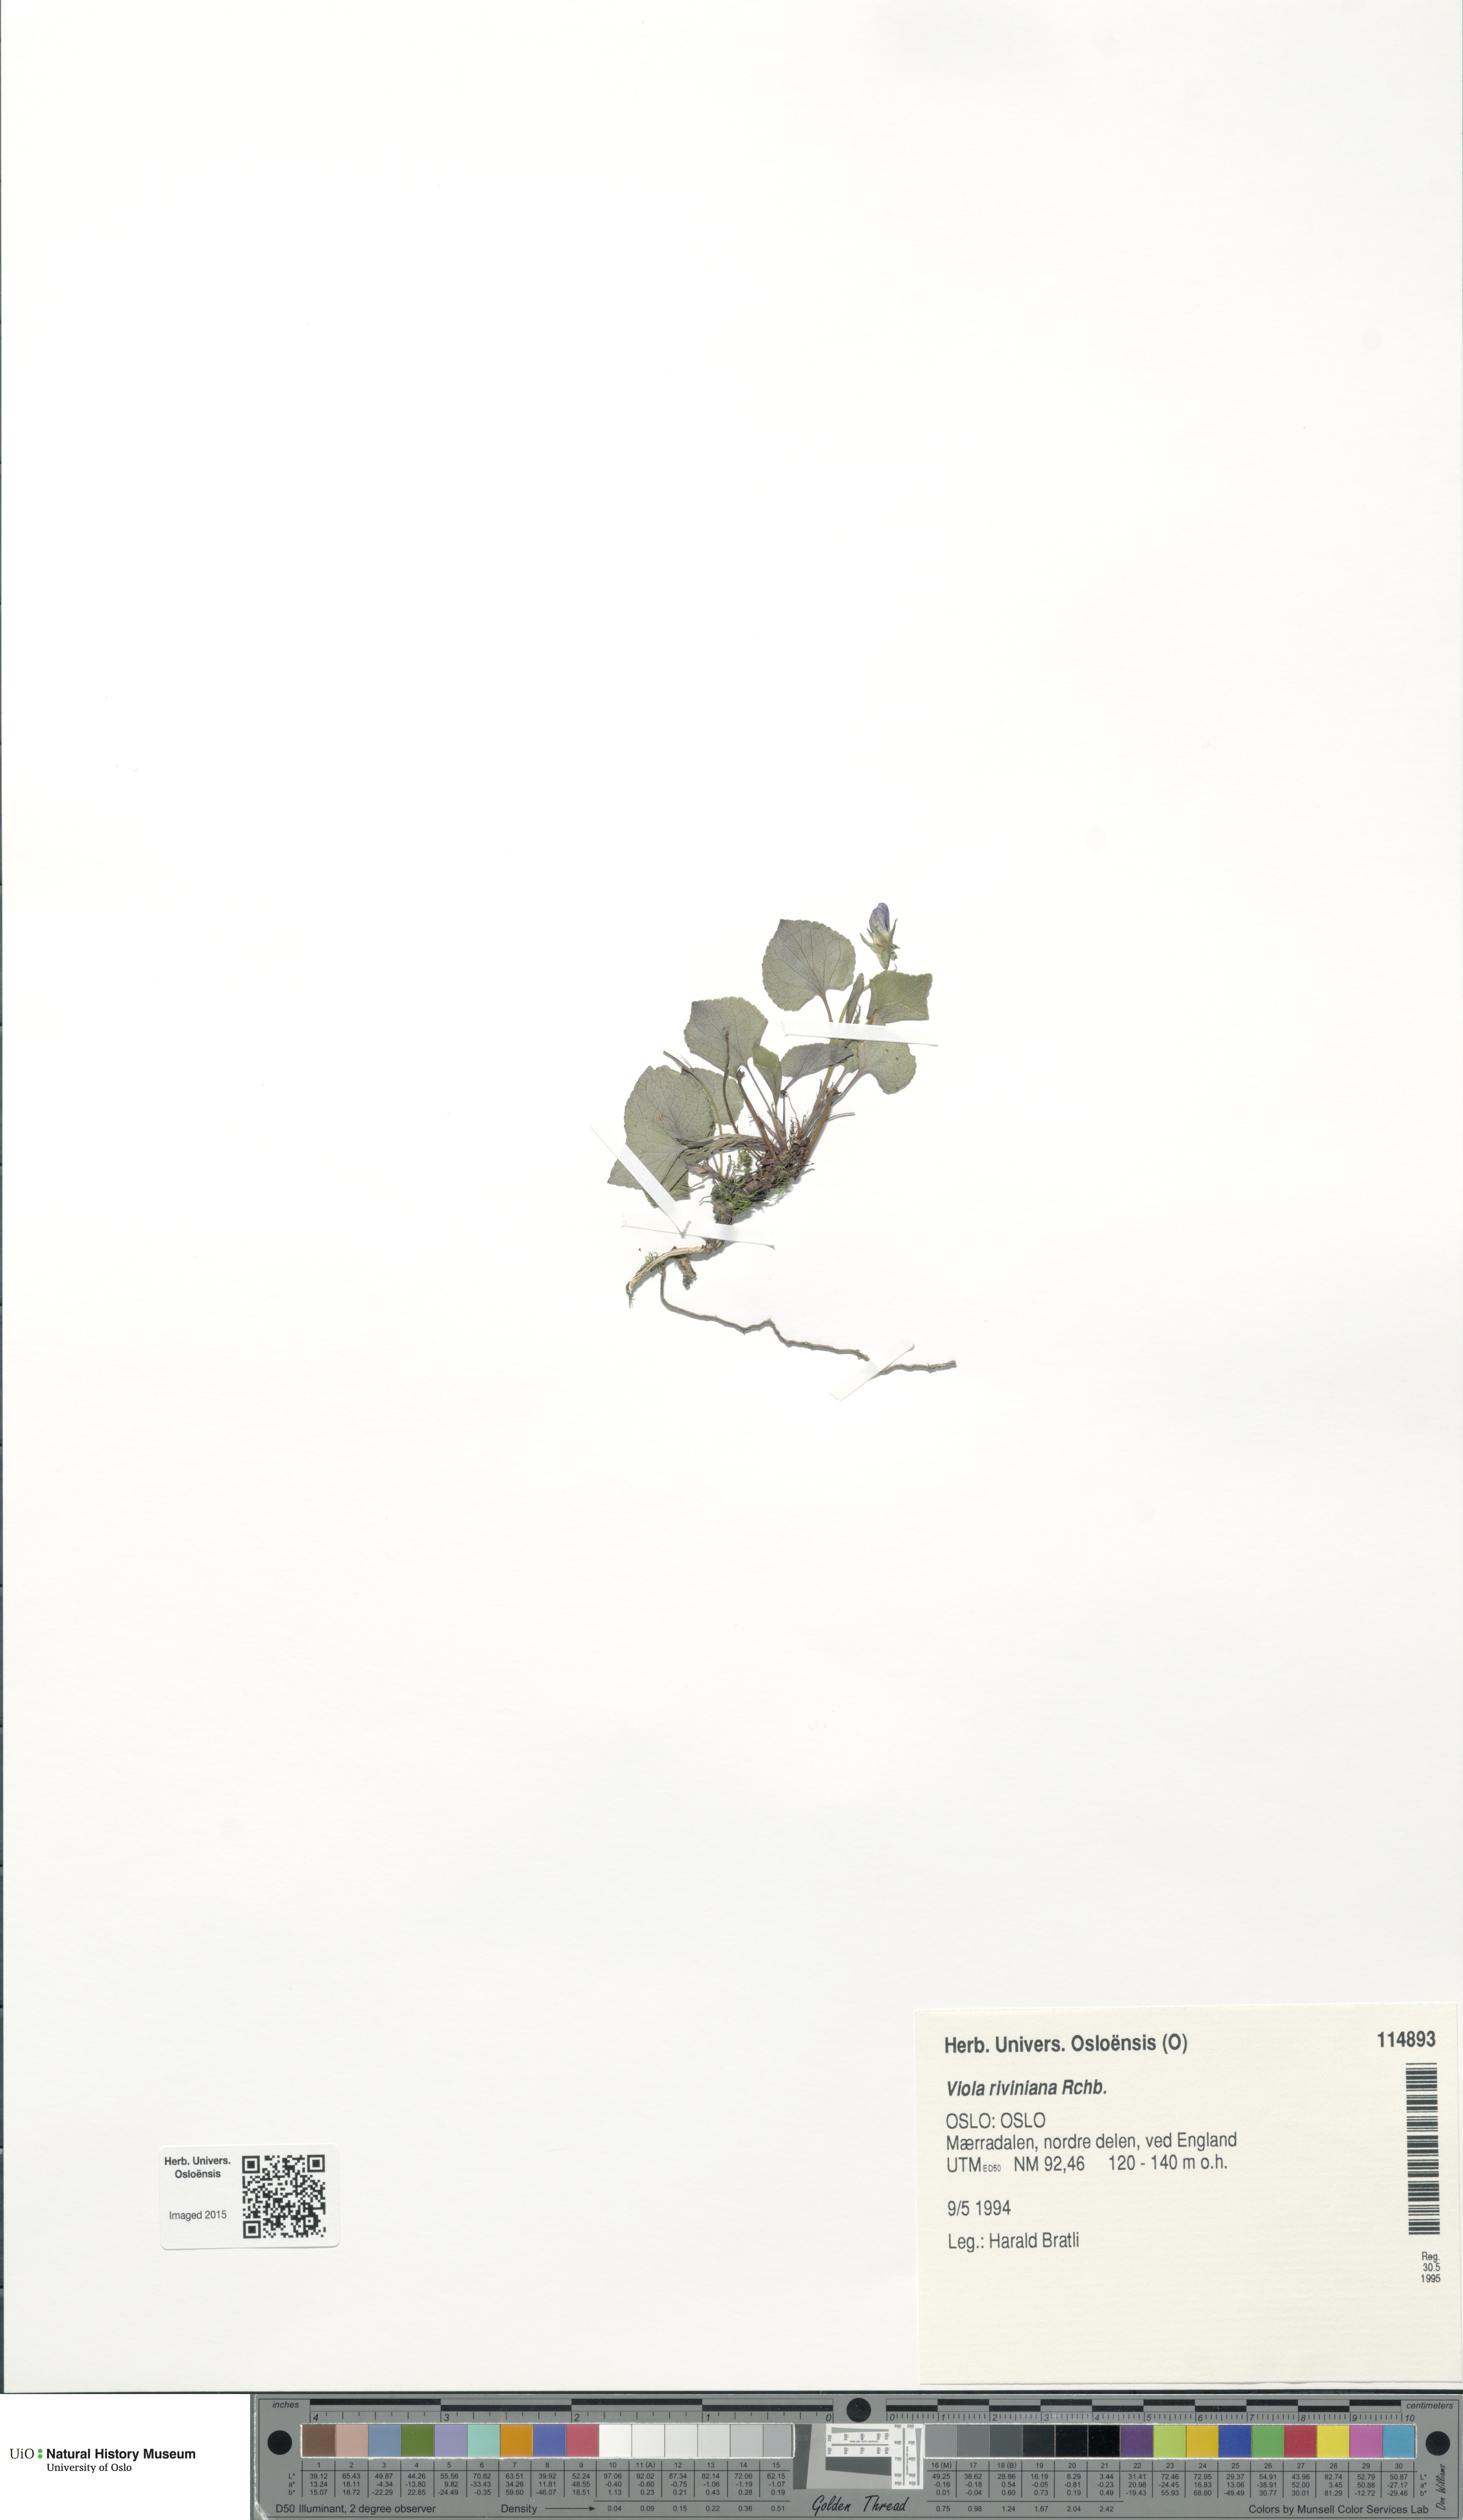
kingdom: Plantae
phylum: Tracheophyta
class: Magnoliopsida
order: Malpighiales
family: Violaceae
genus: Viola
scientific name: Viola riviniana
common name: Common dog-violet
